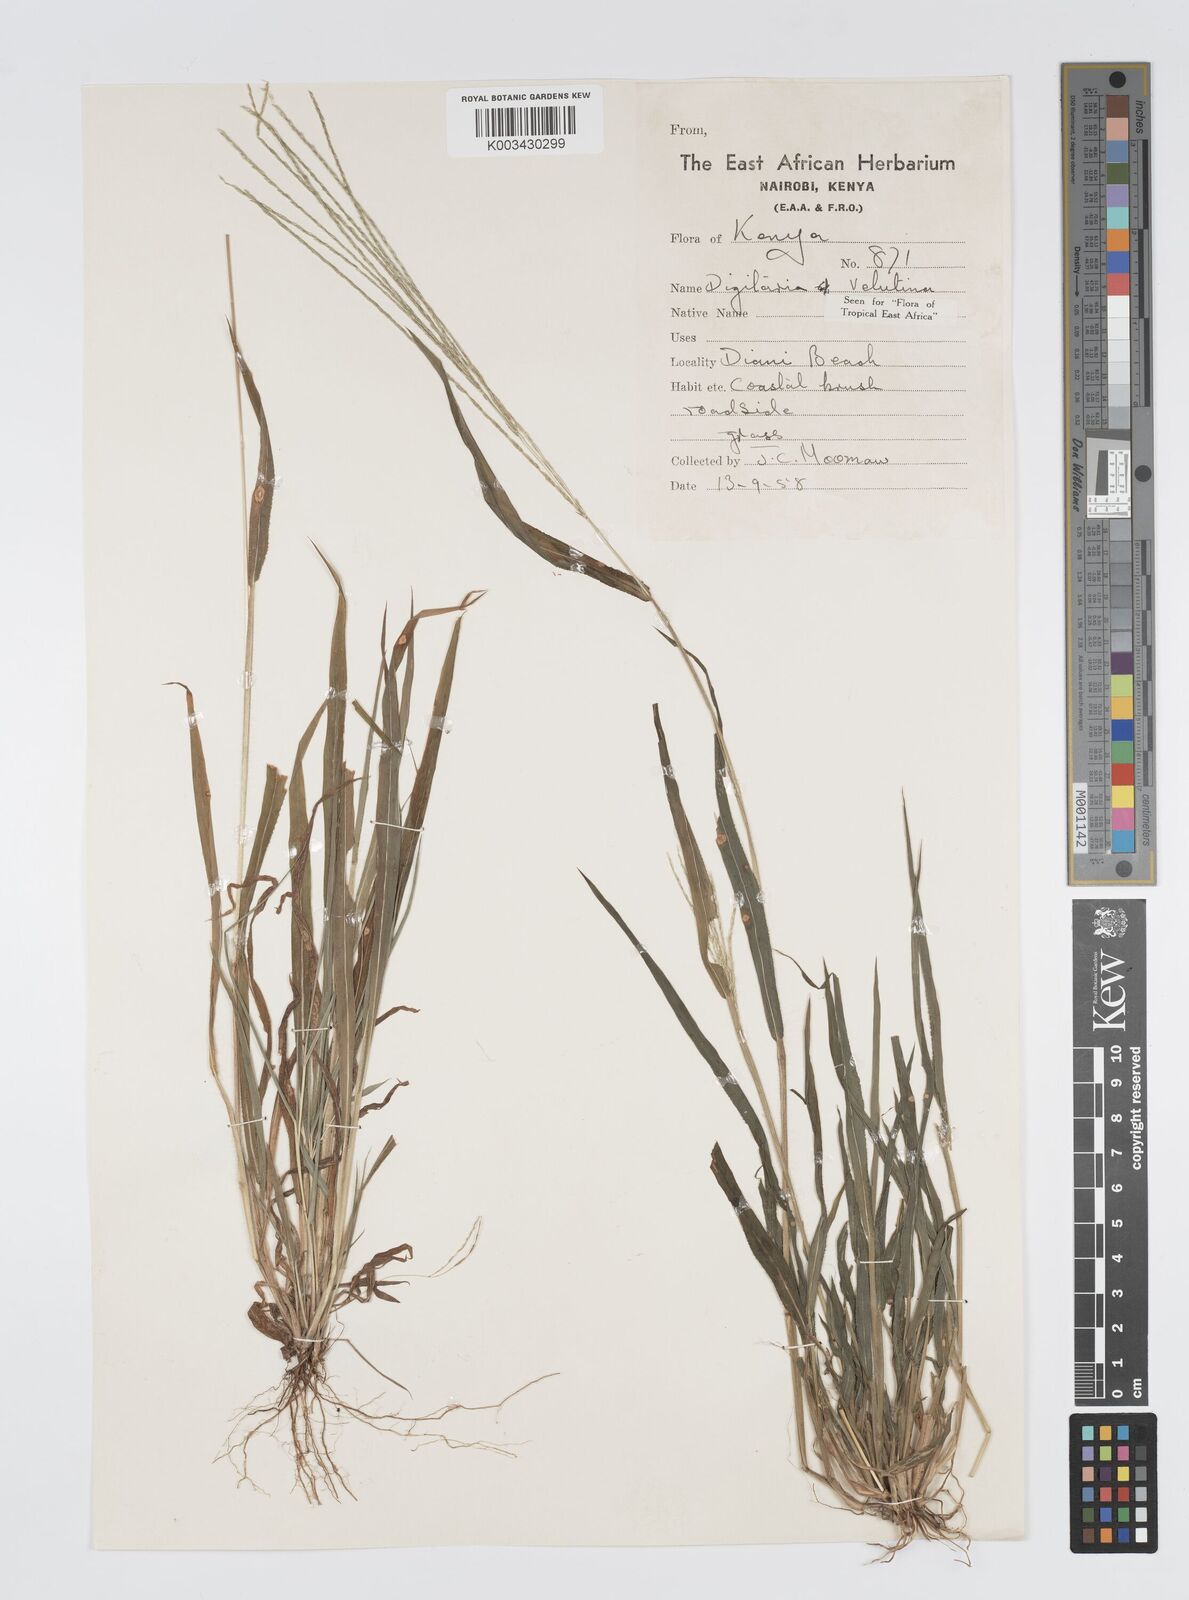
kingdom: Plantae
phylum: Tracheophyta
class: Liliopsida
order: Poales
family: Poaceae
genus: Digitaria
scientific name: Digitaria velutina
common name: Long-plume finger grass
